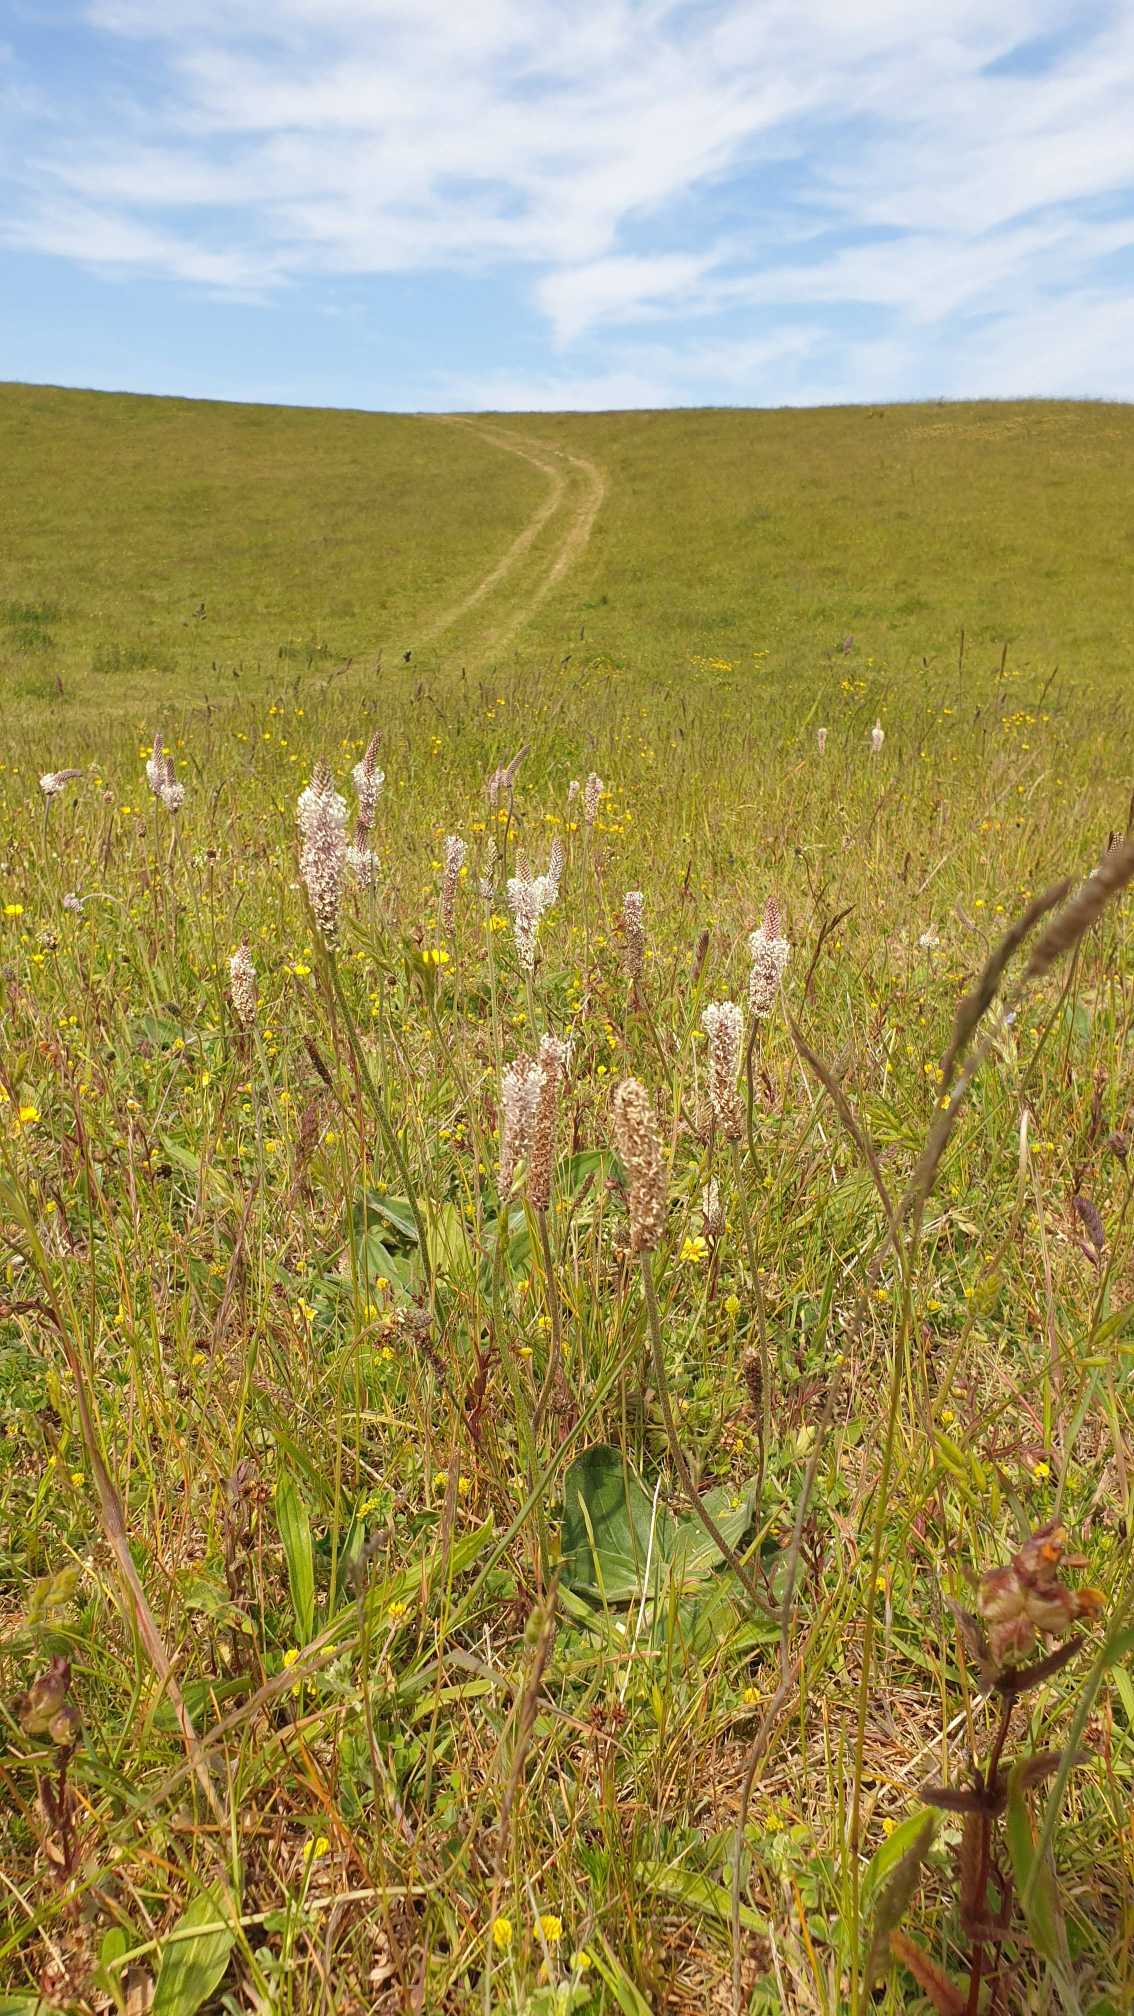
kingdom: Plantae
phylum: Tracheophyta
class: Magnoliopsida
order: Lamiales
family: Plantaginaceae
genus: Plantago
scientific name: Plantago media
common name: Dunet vejbred
